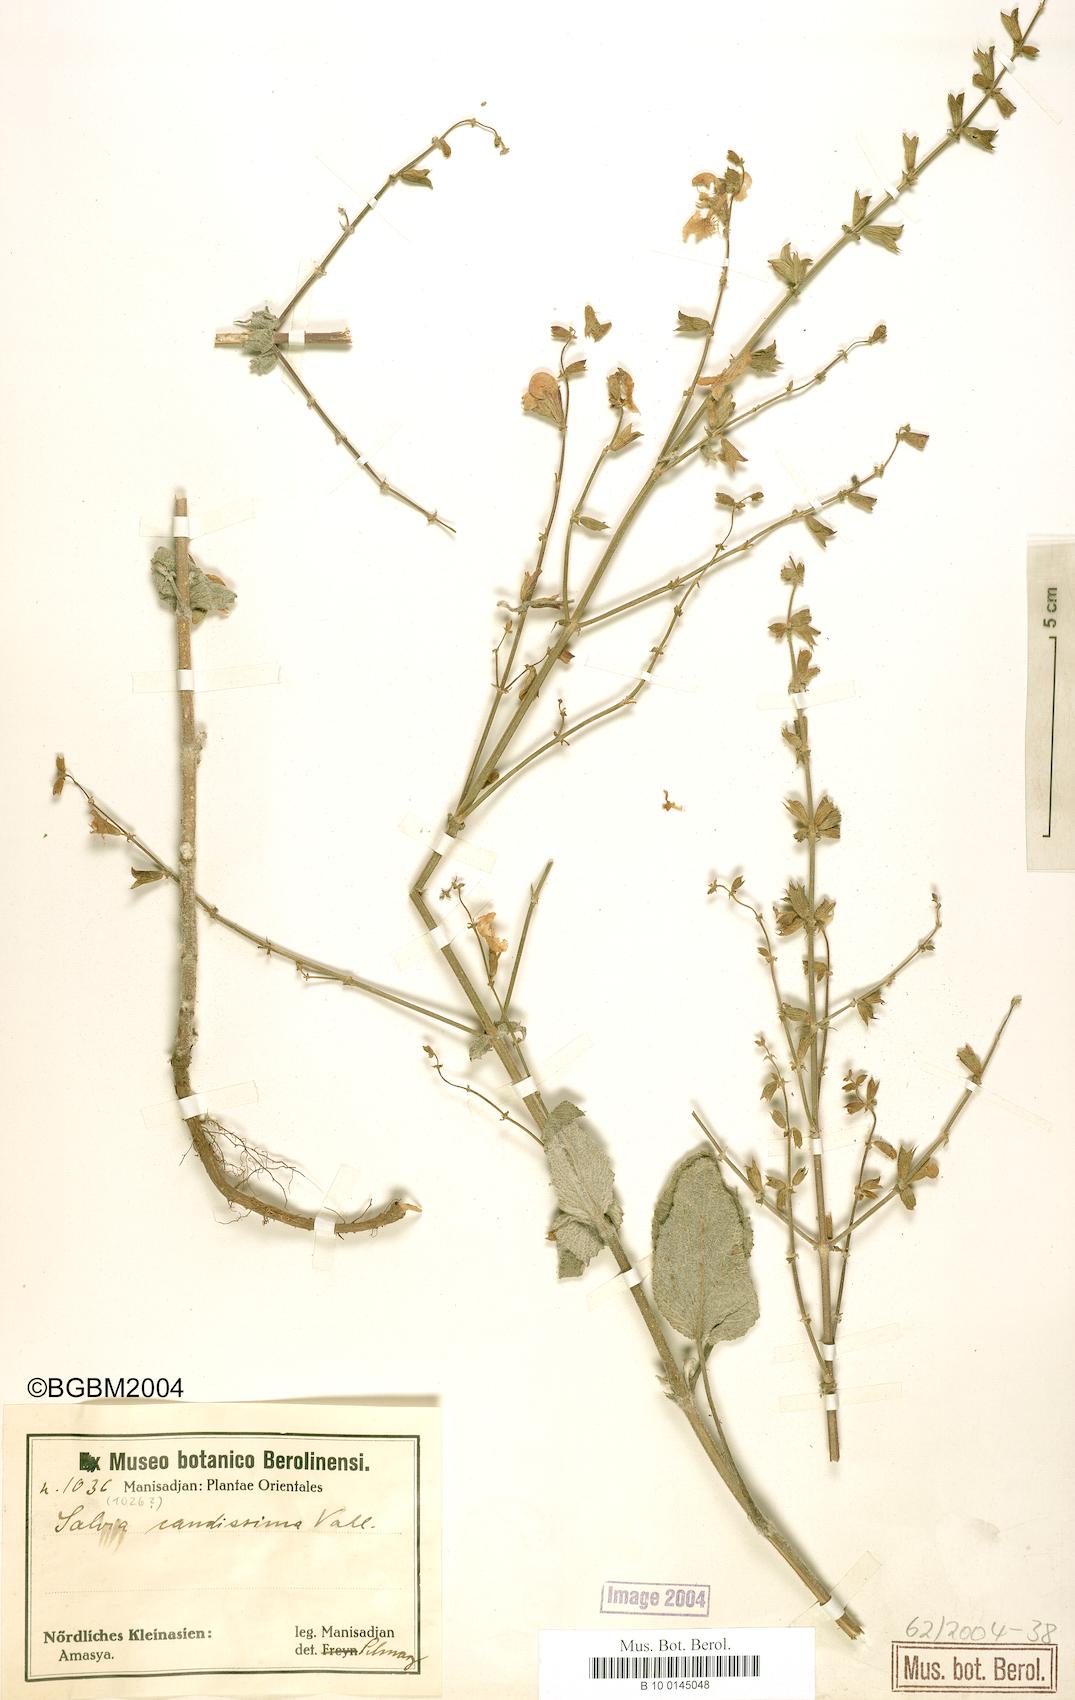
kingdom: Plantae
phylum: Tracheophyta
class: Magnoliopsida
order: Lamiales
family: Lamiaceae
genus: Salvia
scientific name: Salvia candidissima
